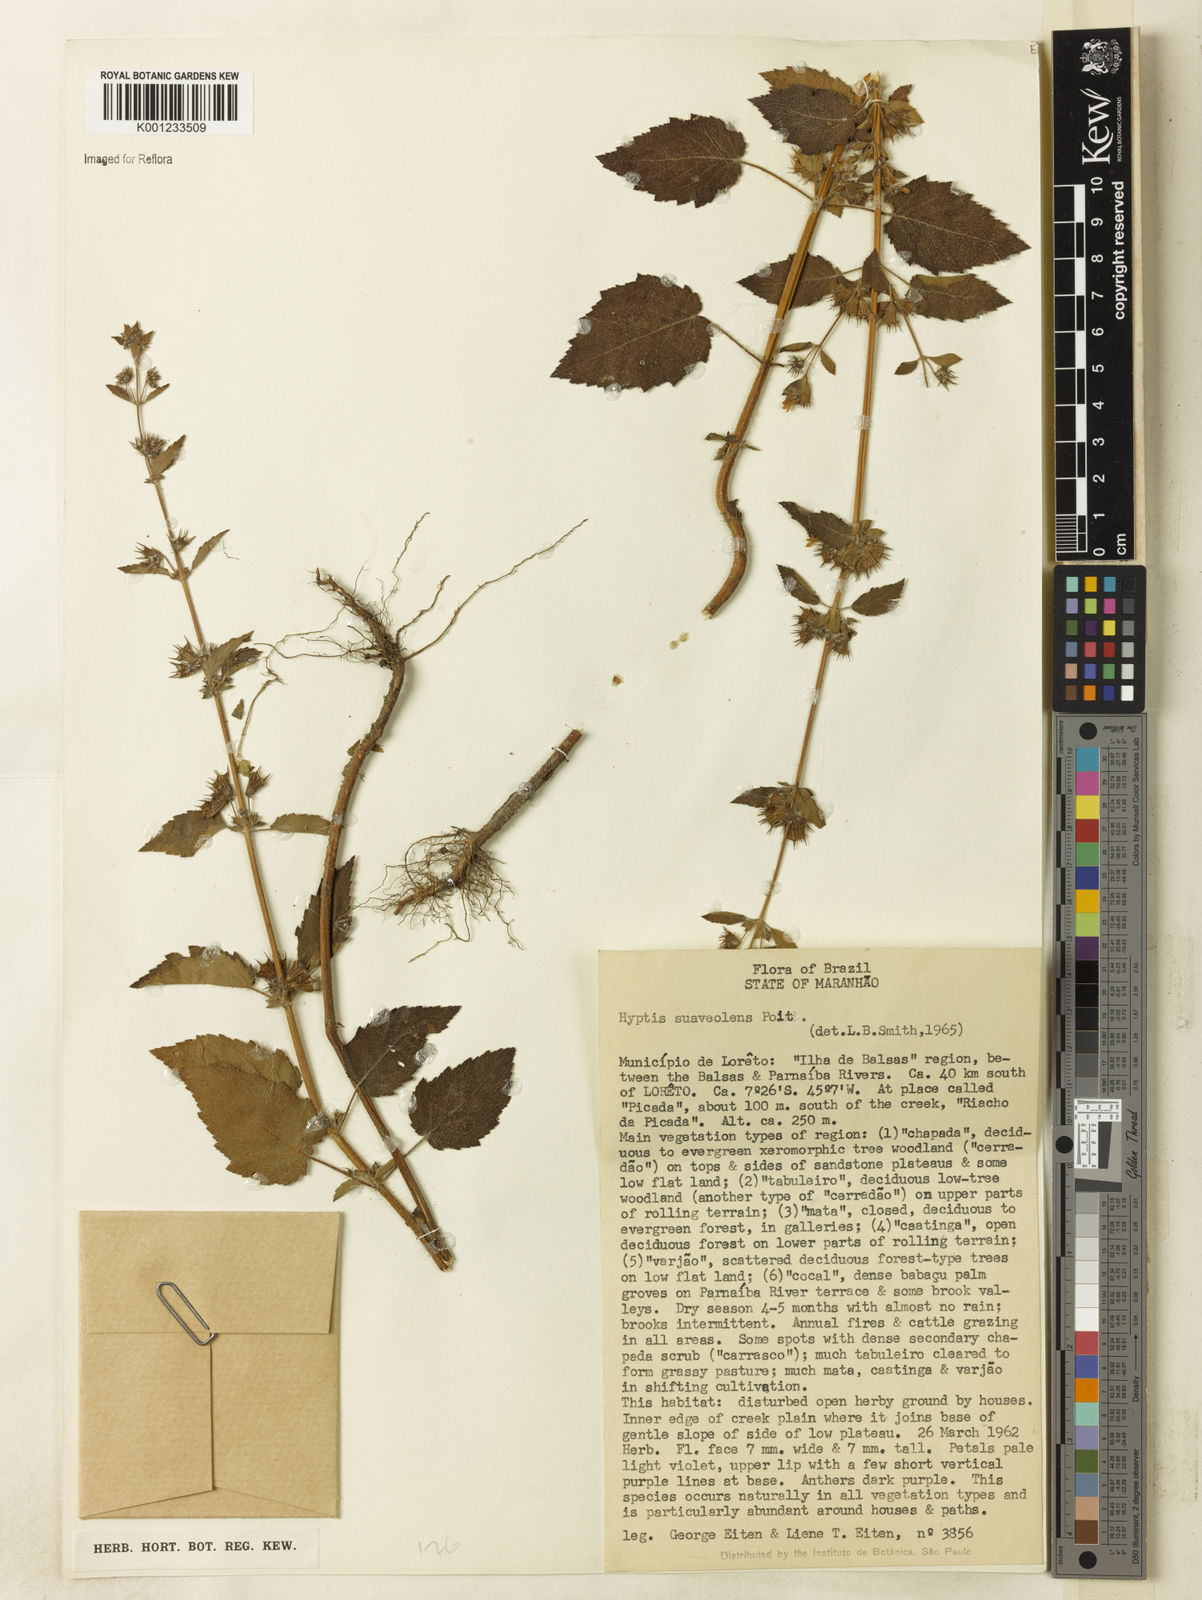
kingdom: Plantae
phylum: Tracheophyta
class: Magnoliopsida
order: Lamiales
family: Lamiaceae
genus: Mesosphaerum
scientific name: Mesosphaerum suaveolens
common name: Pignut
